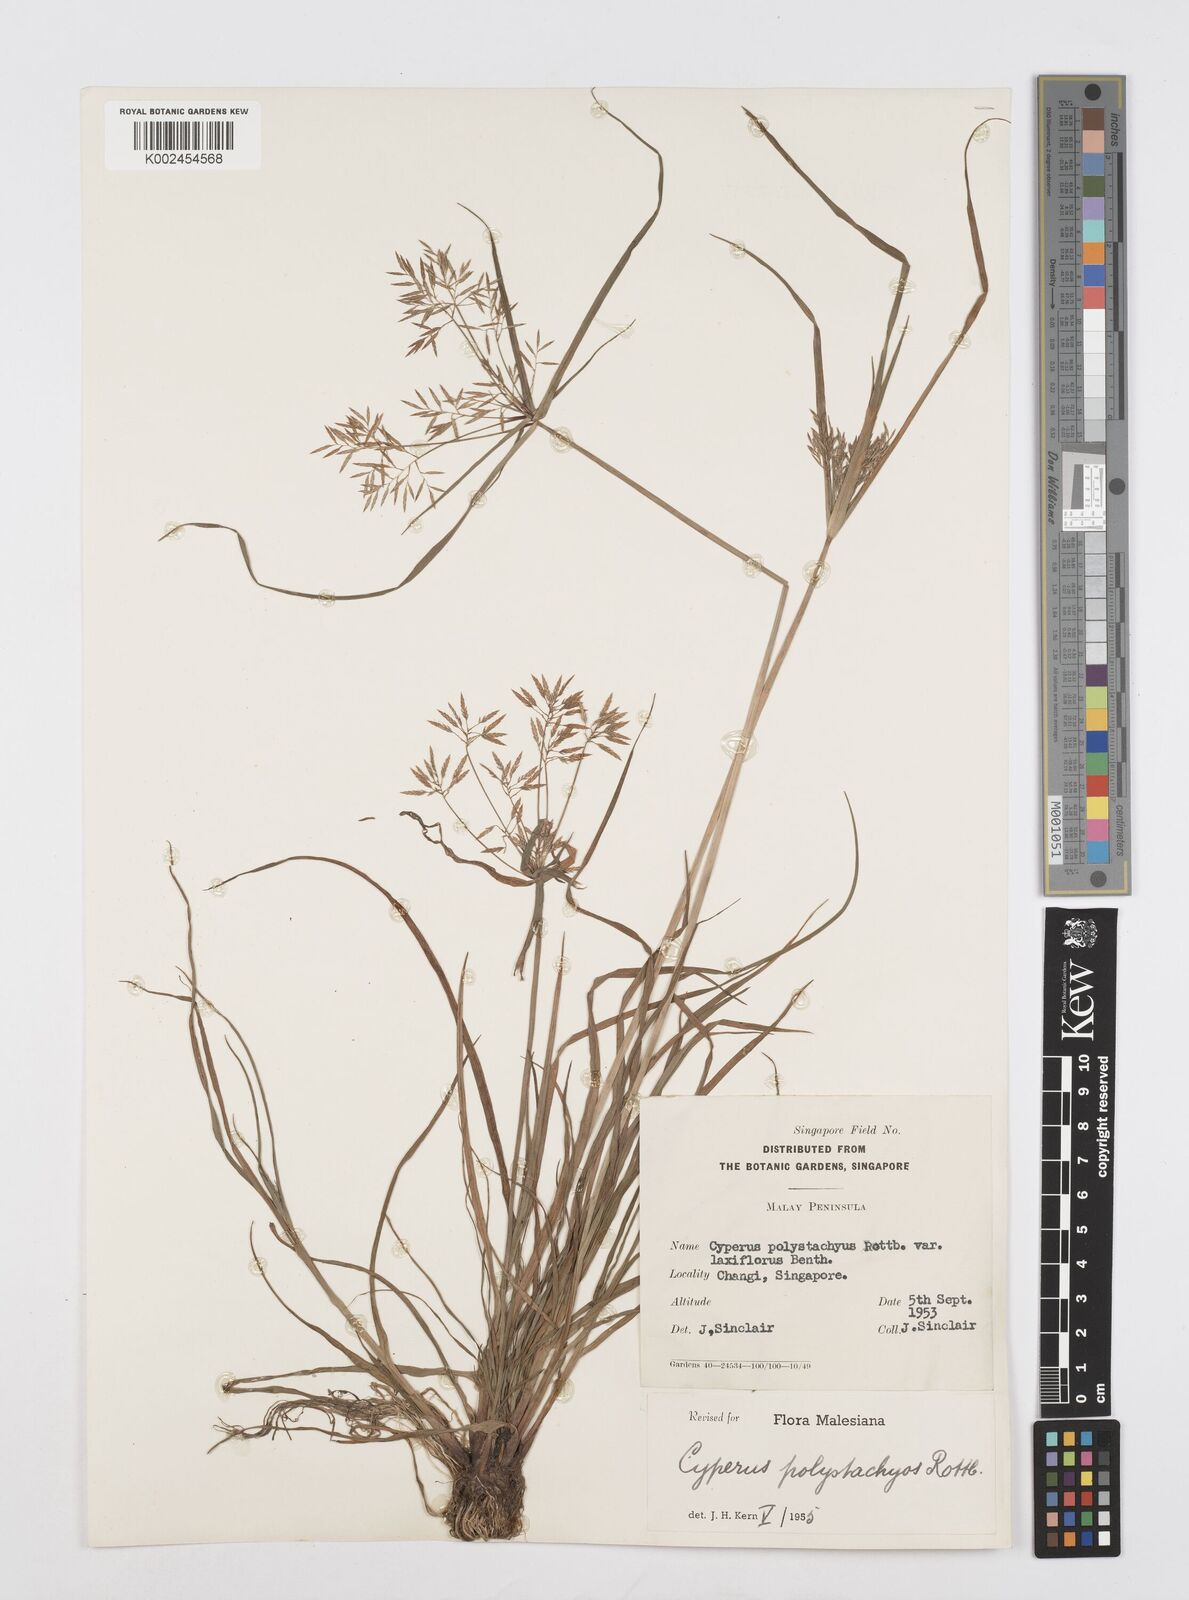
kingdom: Plantae
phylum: Tracheophyta
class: Liliopsida
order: Poales
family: Cyperaceae
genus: Cyperus
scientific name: Cyperus polystachyos
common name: Bunchy flat sedge
